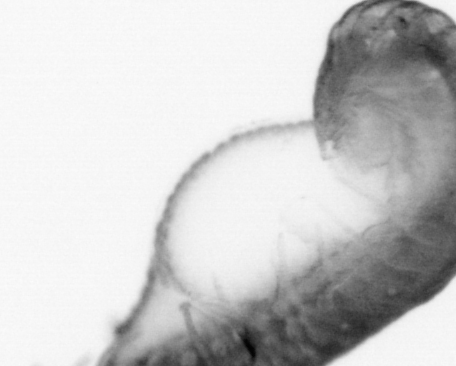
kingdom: Animalia
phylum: Annelida
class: Polychaeta
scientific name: Polychaeta
